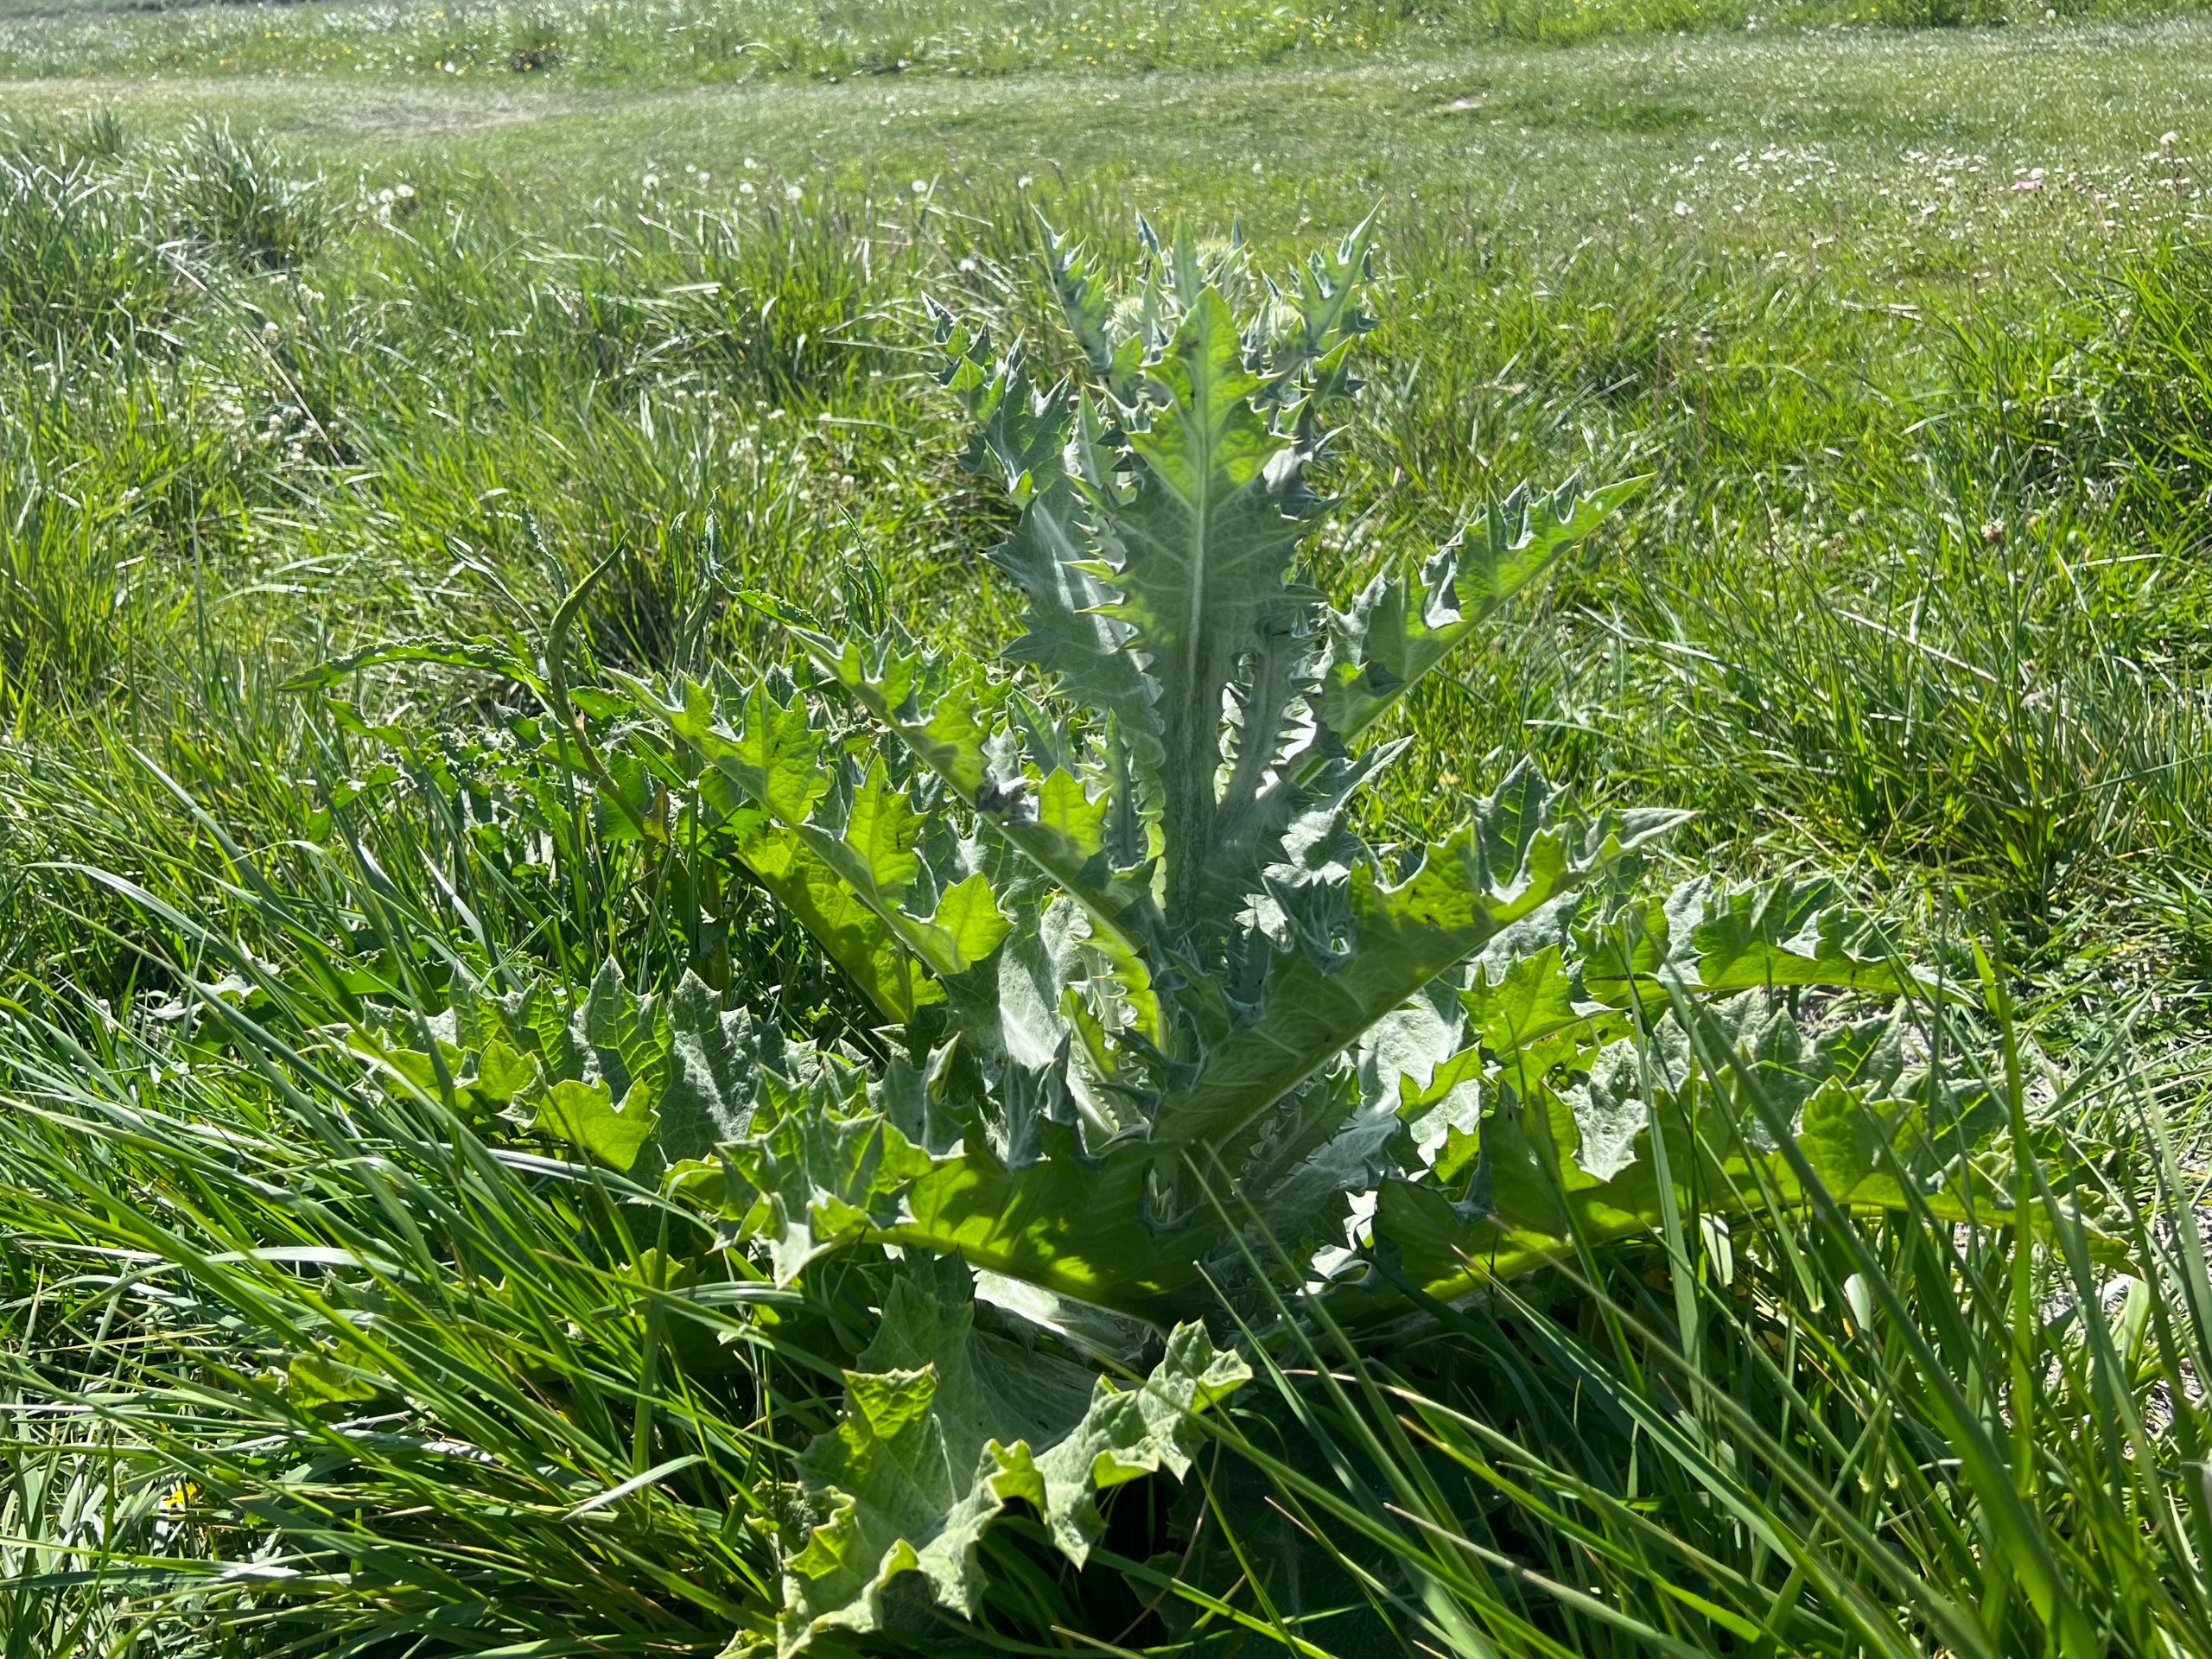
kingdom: Plantae
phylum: Tracheophyta
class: Magnoliopsida
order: Asterales
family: Asteraceae
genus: Onopordum
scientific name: Onopordum acanthium
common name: Æselfoder
